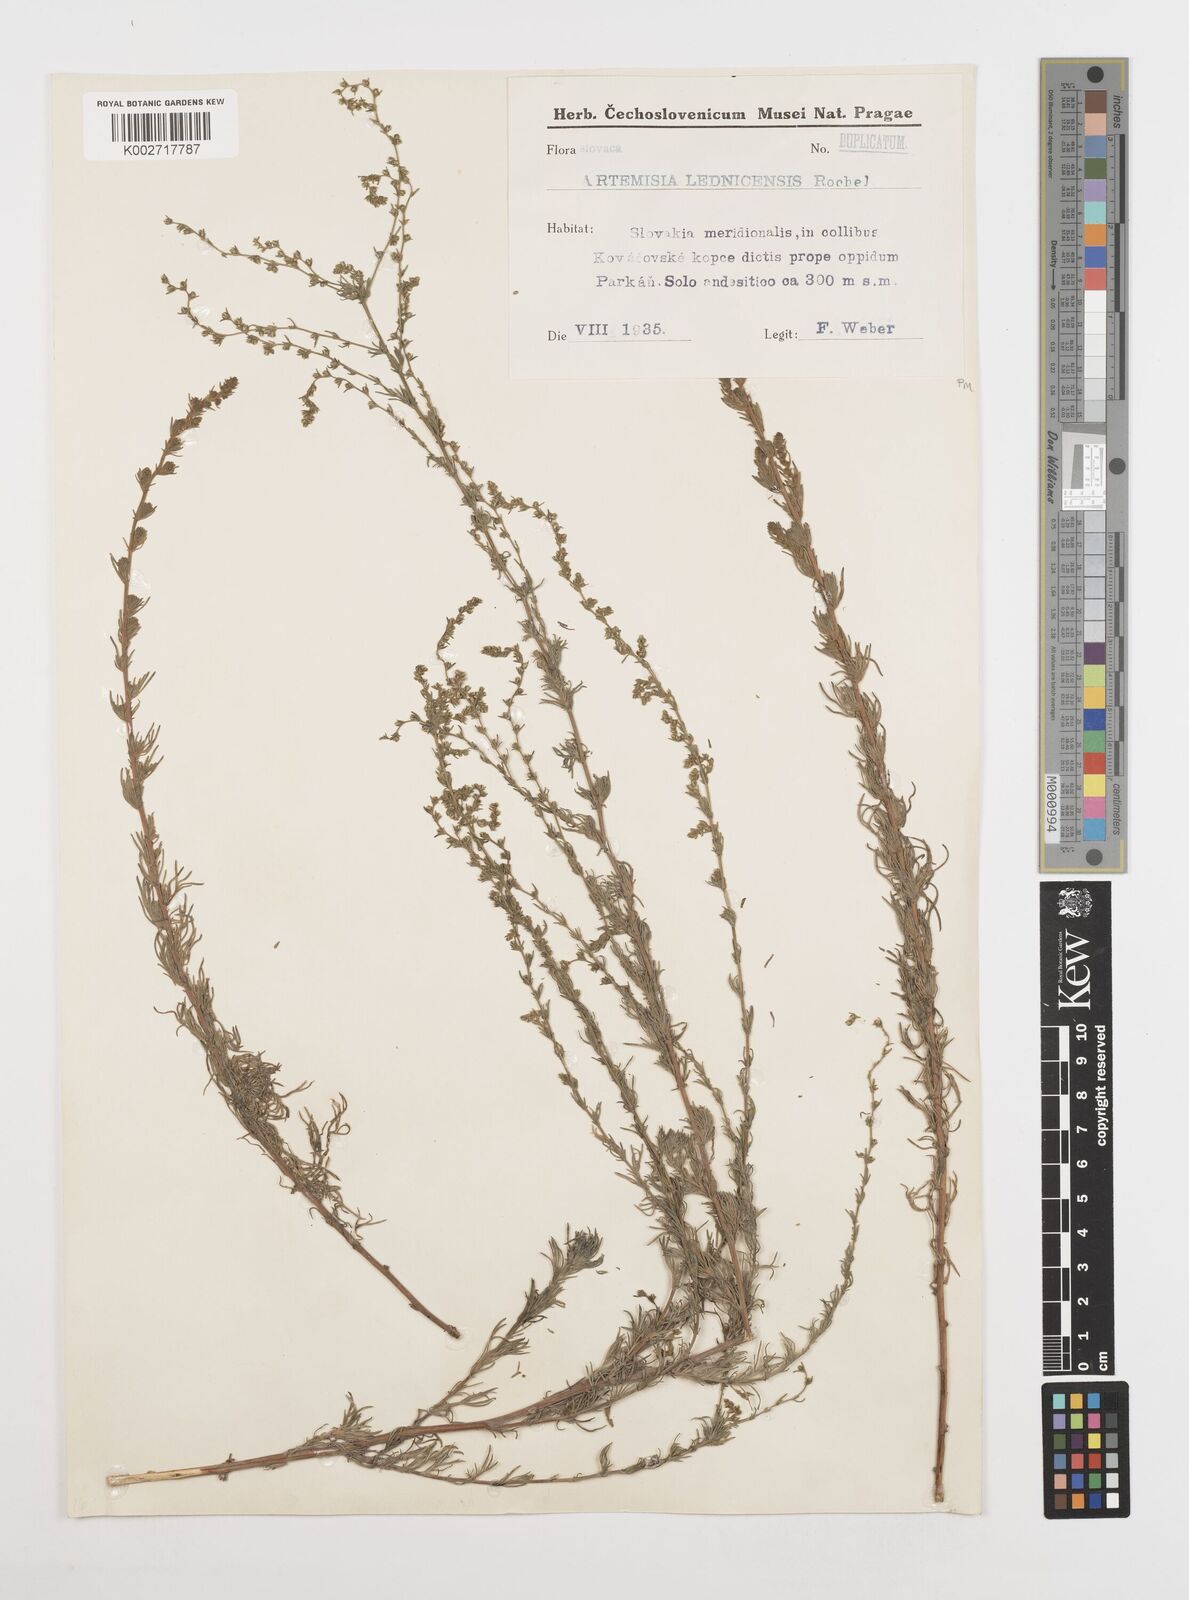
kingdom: Plantae
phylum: Tracheophyta
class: Magnoliopsida
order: Asterales
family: Asteraceae
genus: Artemisia
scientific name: Artemisia campestris
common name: Field wormwood
